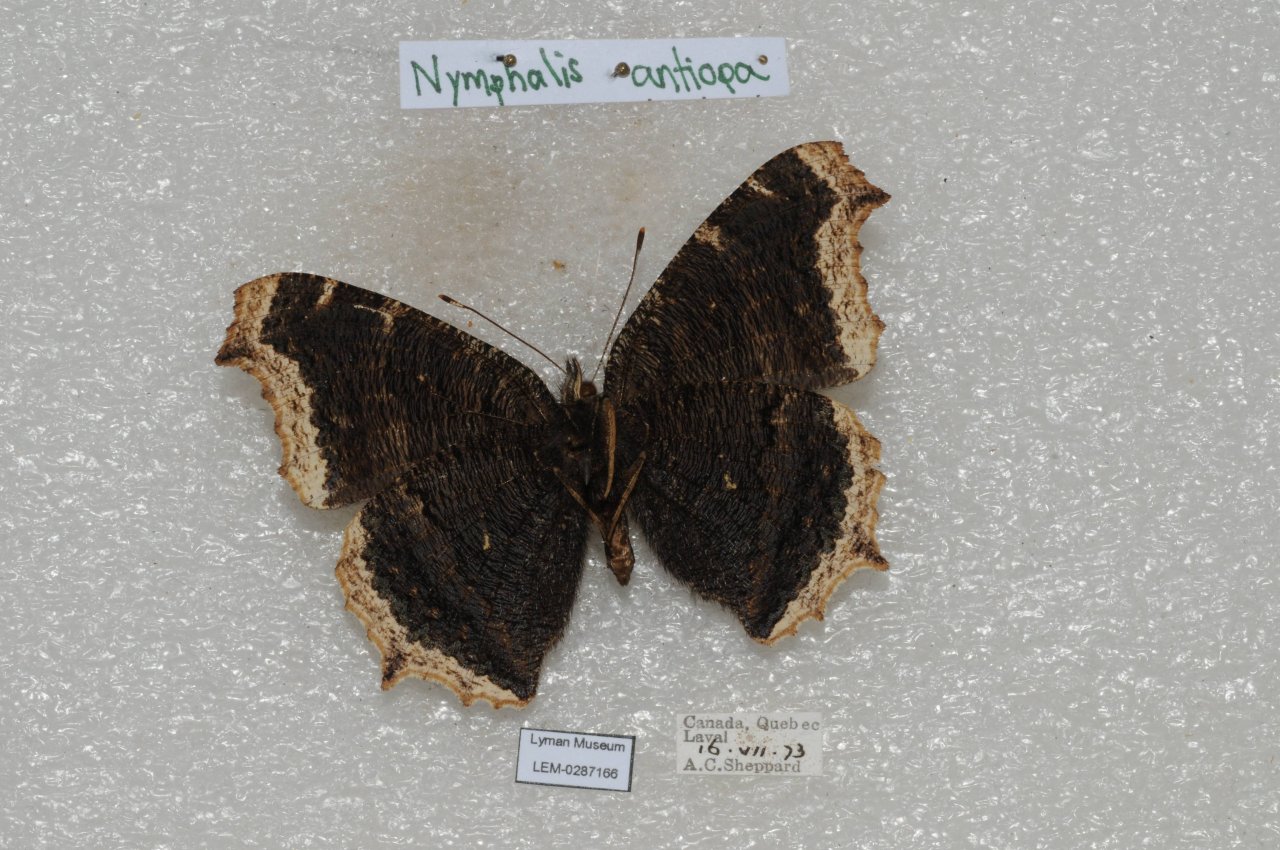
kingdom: Animalia
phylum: Arthropoda
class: Insecta
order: Lepidoptera
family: Nymphalidae
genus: Nymphalis
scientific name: Nymphalis antiopa
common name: Mourning Cloak
